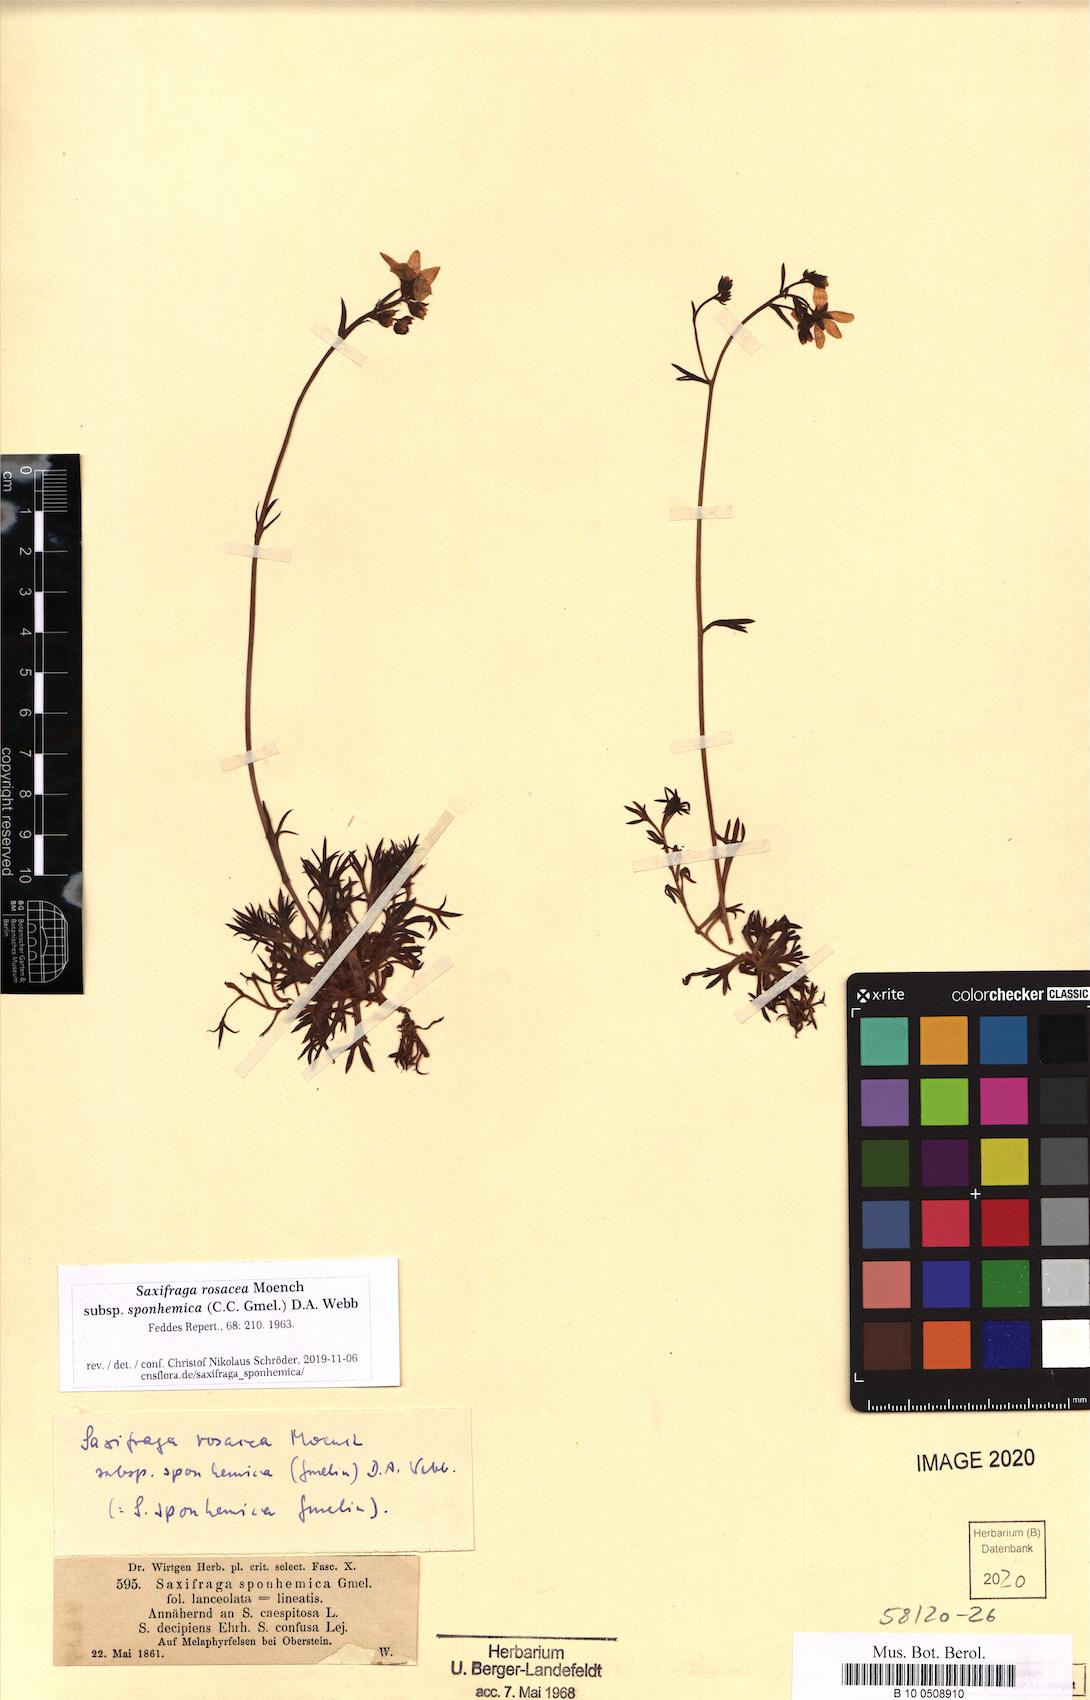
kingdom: Plantae
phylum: Tracheophyta
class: Magnoliopsida
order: Saxifragales
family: Saxifragaceae
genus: Saxifraga
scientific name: Saxifraga rosacea
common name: Irish saxifrage
